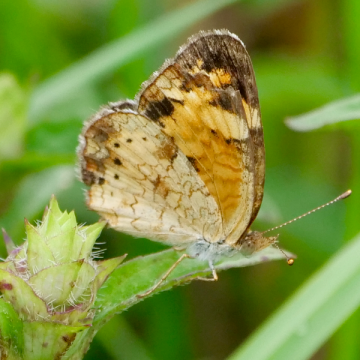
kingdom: Animalia
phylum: Arthropoda
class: Insecta
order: Lepidoptera
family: Nymphalidae
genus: Phyciodes
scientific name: Phyciodes
